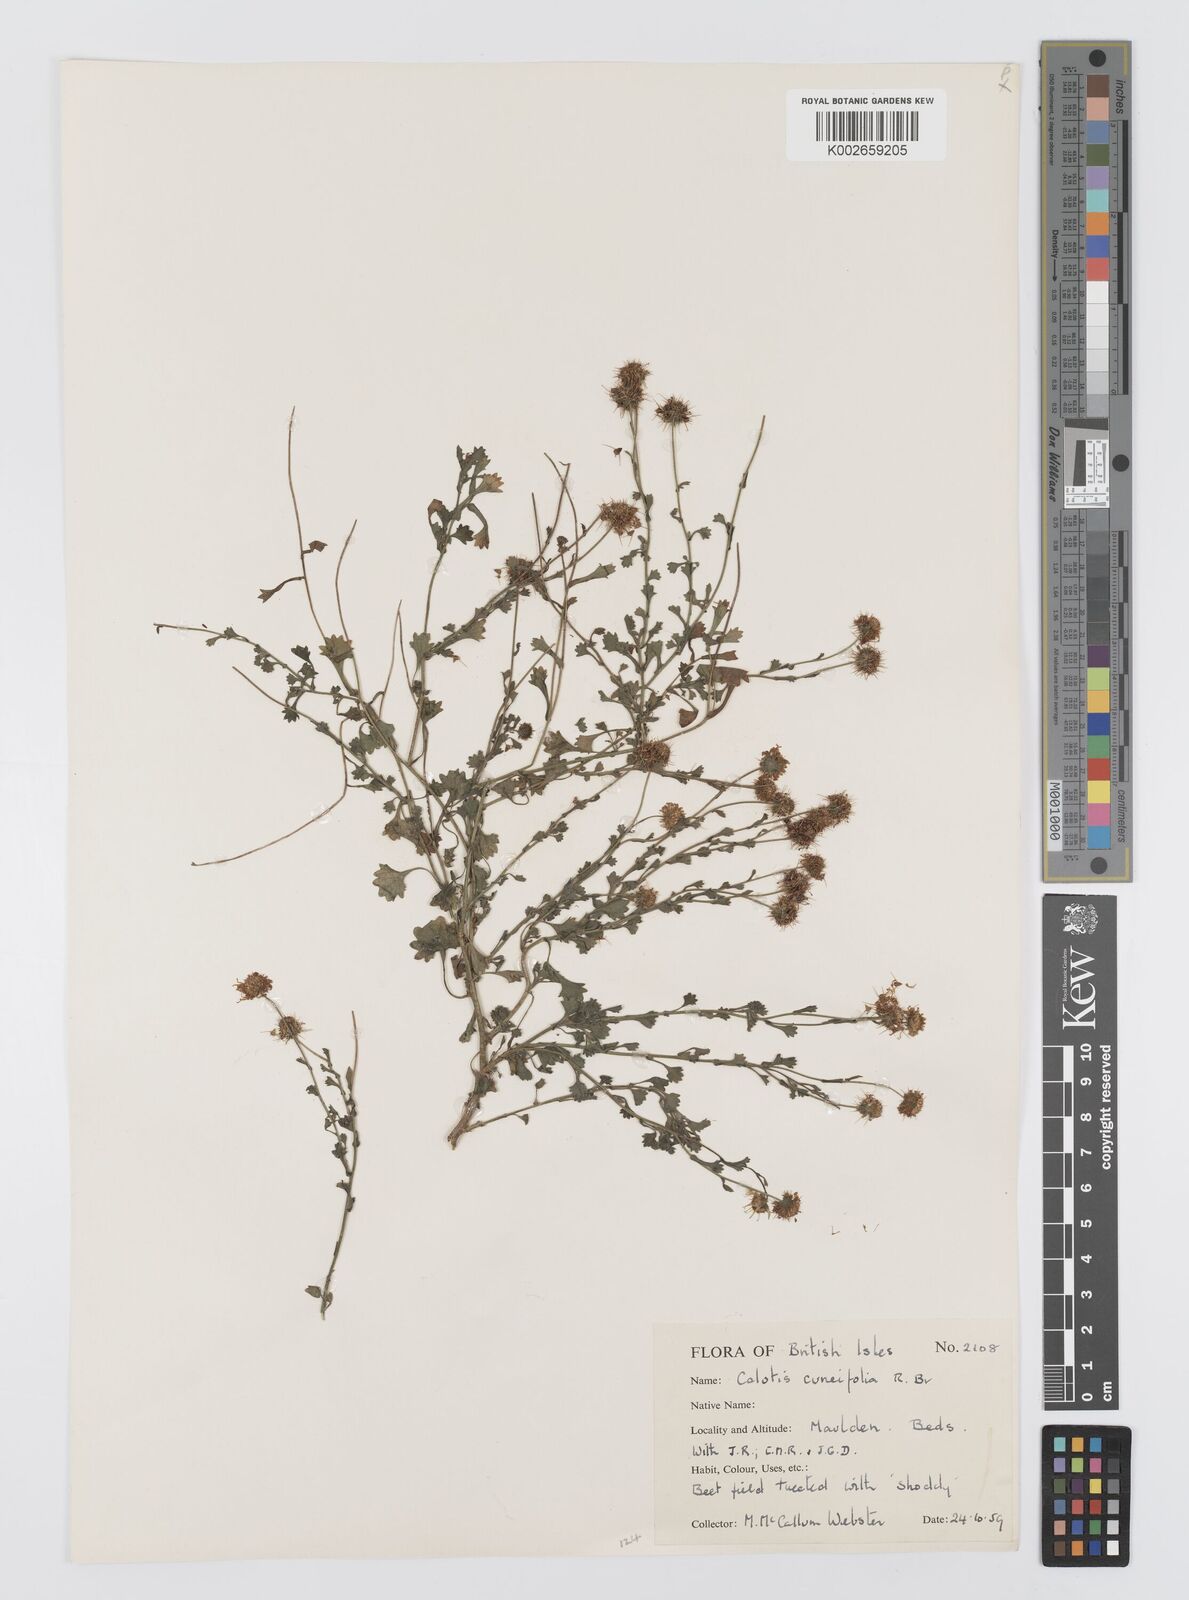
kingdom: Plantae
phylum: Tracheophyta
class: Magnoliopsida
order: Asterales
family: Asteraceae
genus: Calotis
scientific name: Calotis cuneifolia
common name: Bur-daisy
